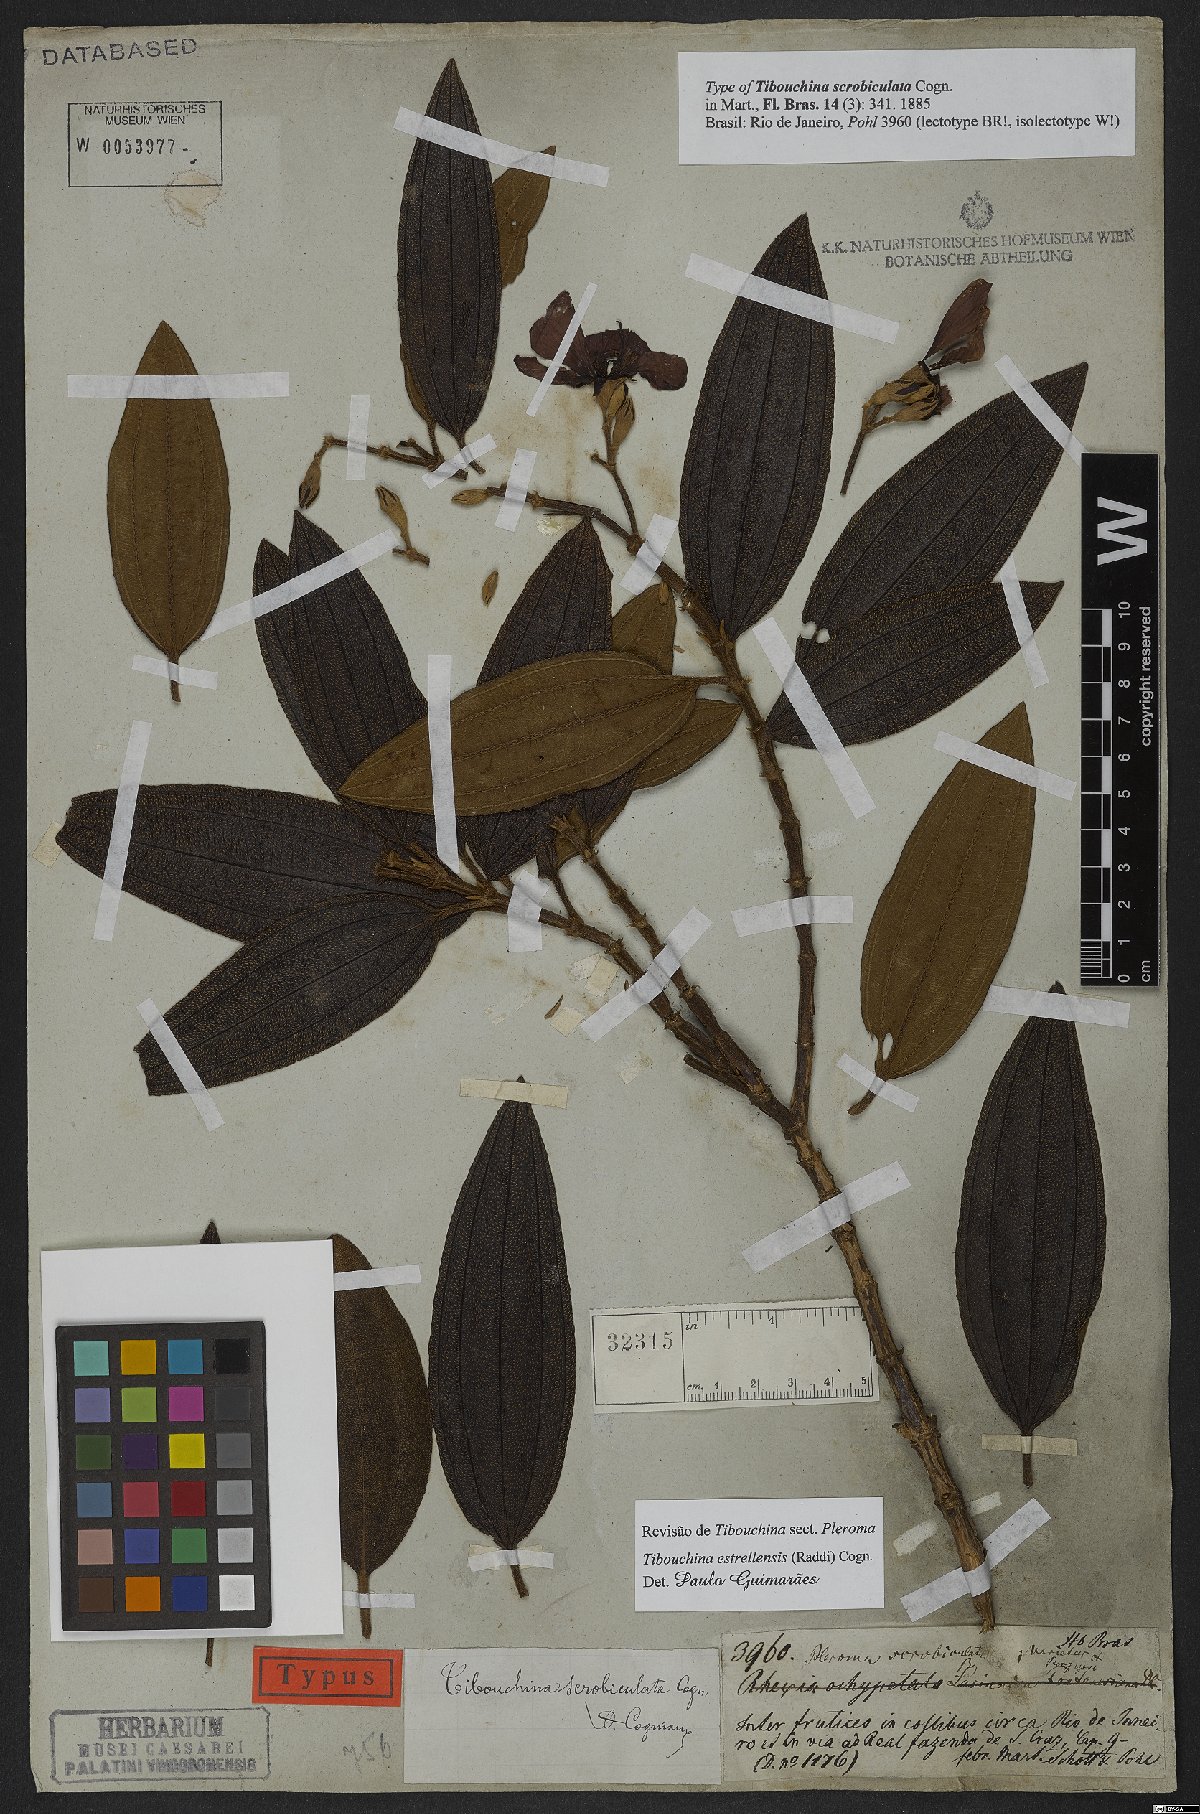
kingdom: Plantae
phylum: Tracheophyta
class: Magnoliopsida
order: Myrtales
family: Melastomataceae
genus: Pleroma
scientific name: Pleroma estrellense
